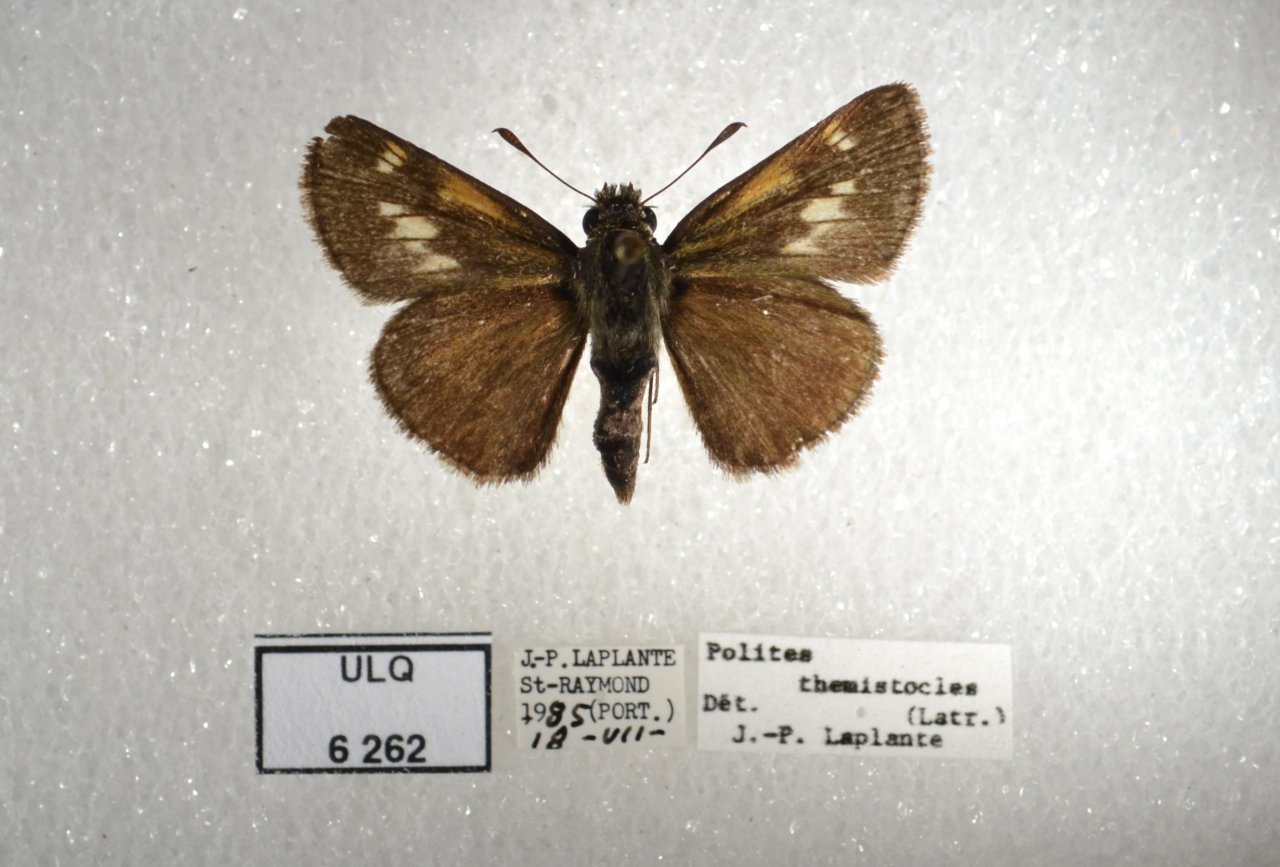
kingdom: Animalia
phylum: Arthropoda
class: Insecta
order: Lepidoptera
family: Hesperiidae
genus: Polites
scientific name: Polites themistocles
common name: Tawny-edged Skipper
